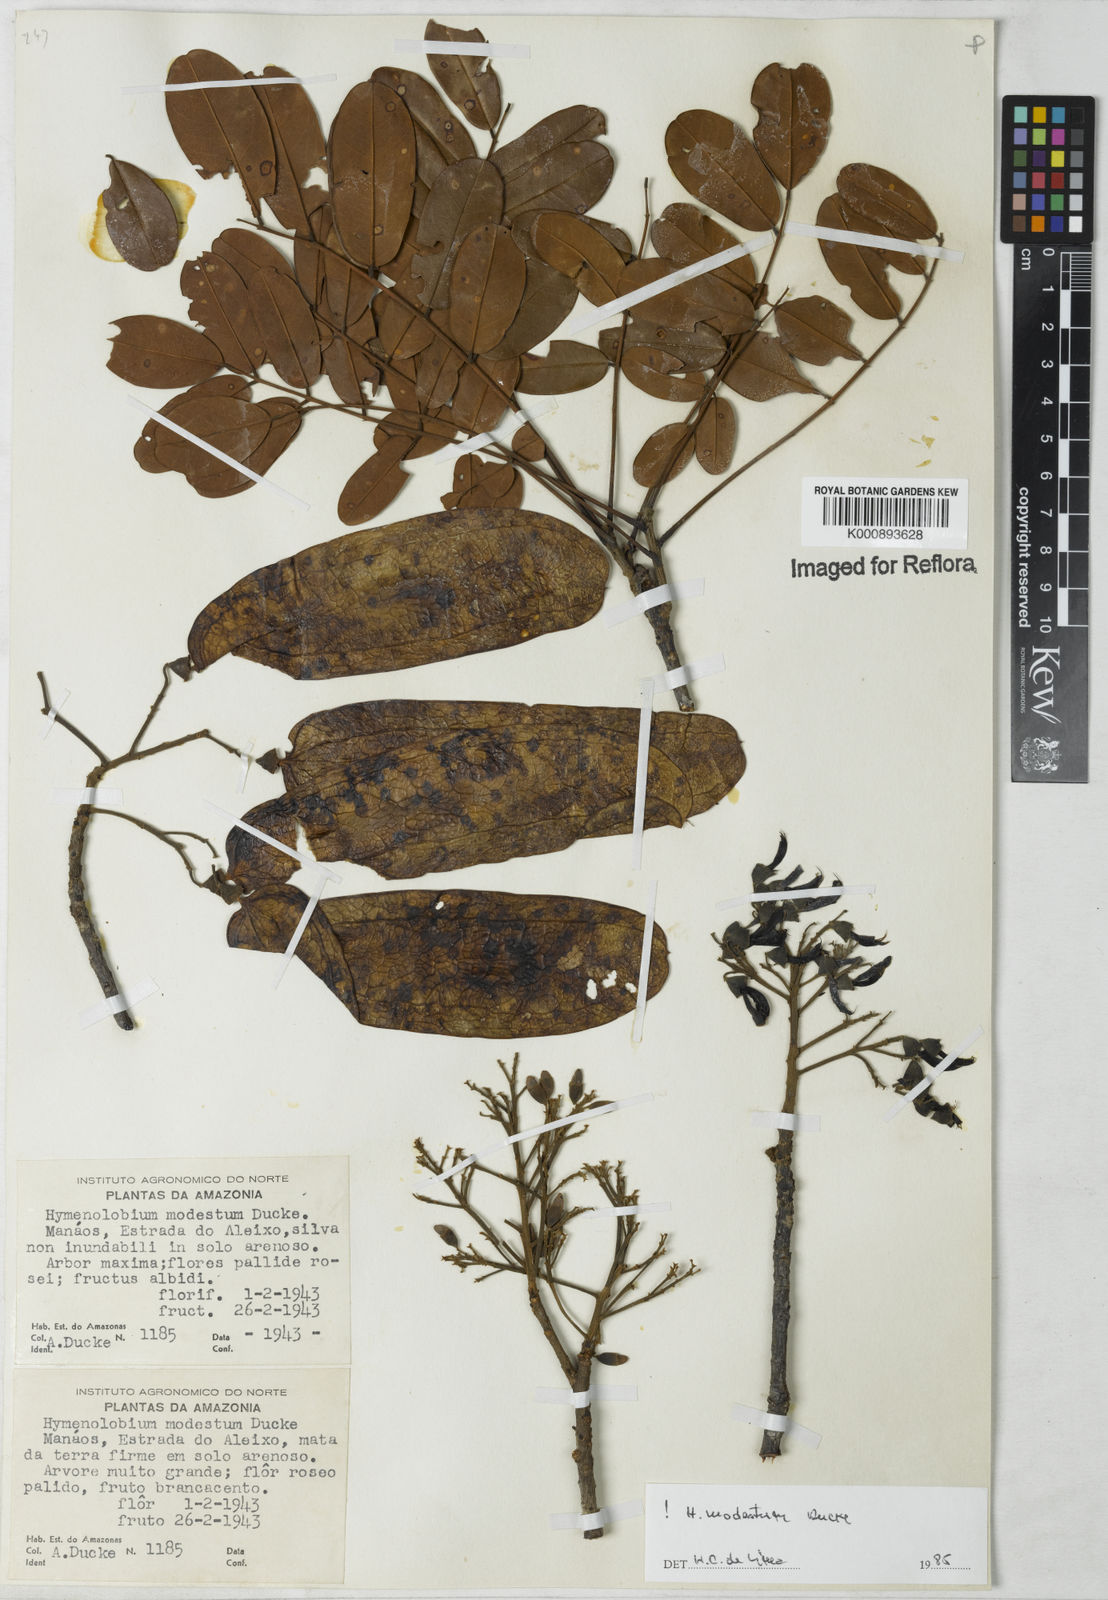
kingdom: Plantae
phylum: Tracheophyta
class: Magnoliopsida
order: Fabales
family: Fabaceae
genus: Hymenolobium
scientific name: Hymenolobium modestum
